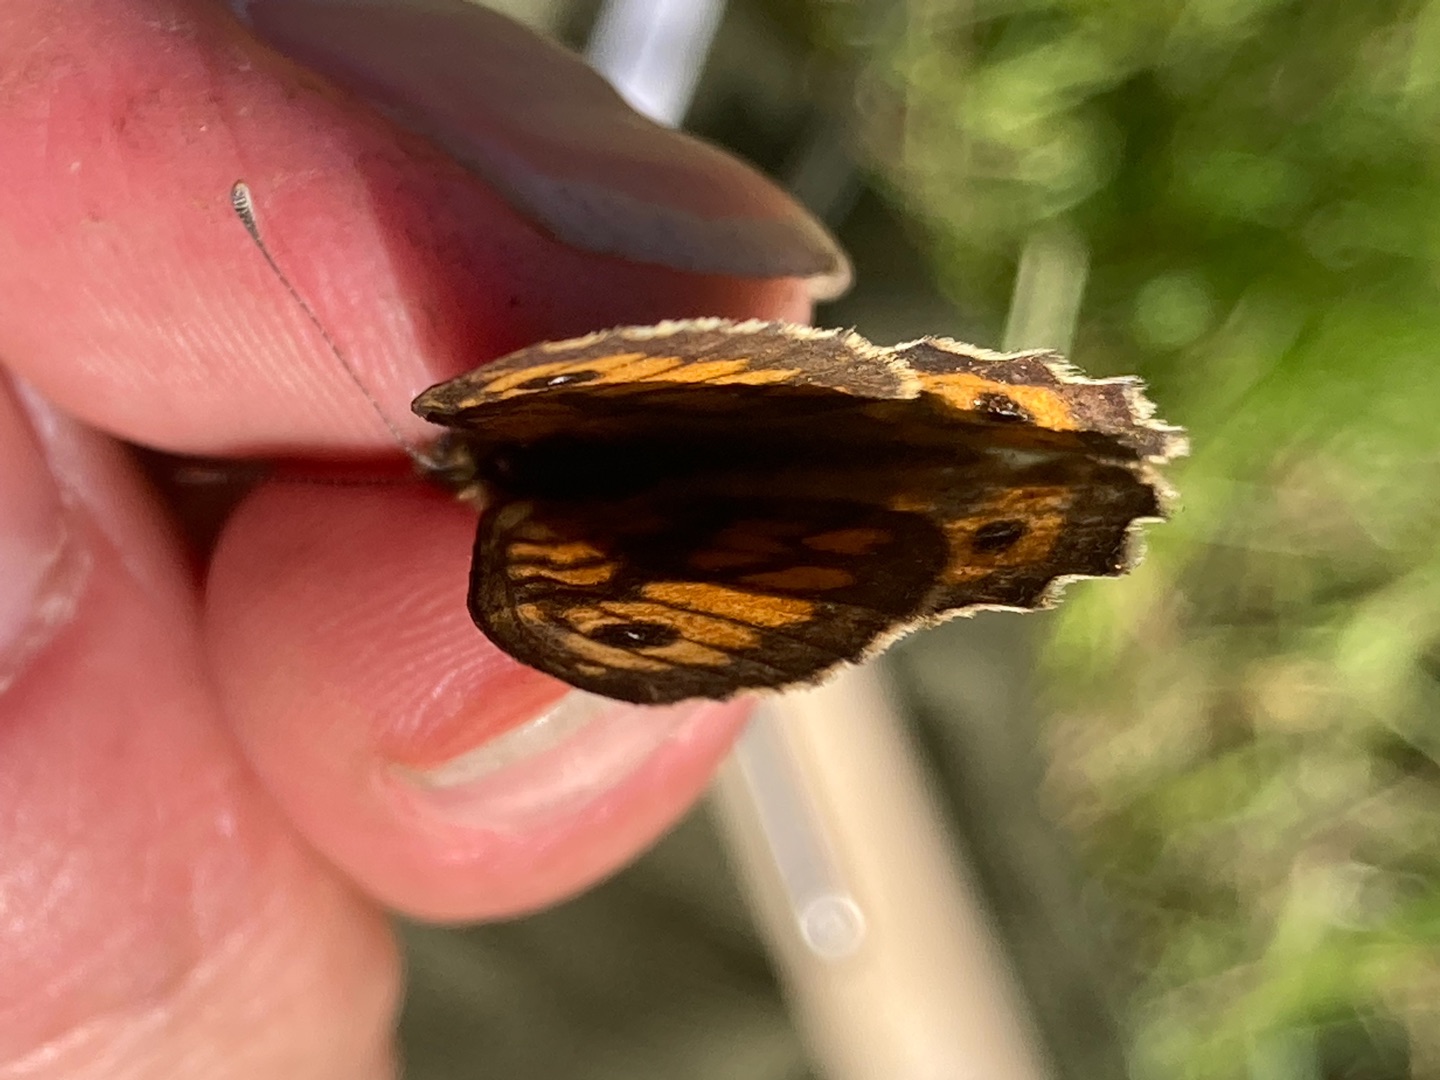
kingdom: Animalia
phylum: Arthropoda
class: Insecta
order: Lepidoptera
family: Nymphalidae
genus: Pararge
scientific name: Pararge Lasiommata megera
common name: Vejrandøje
